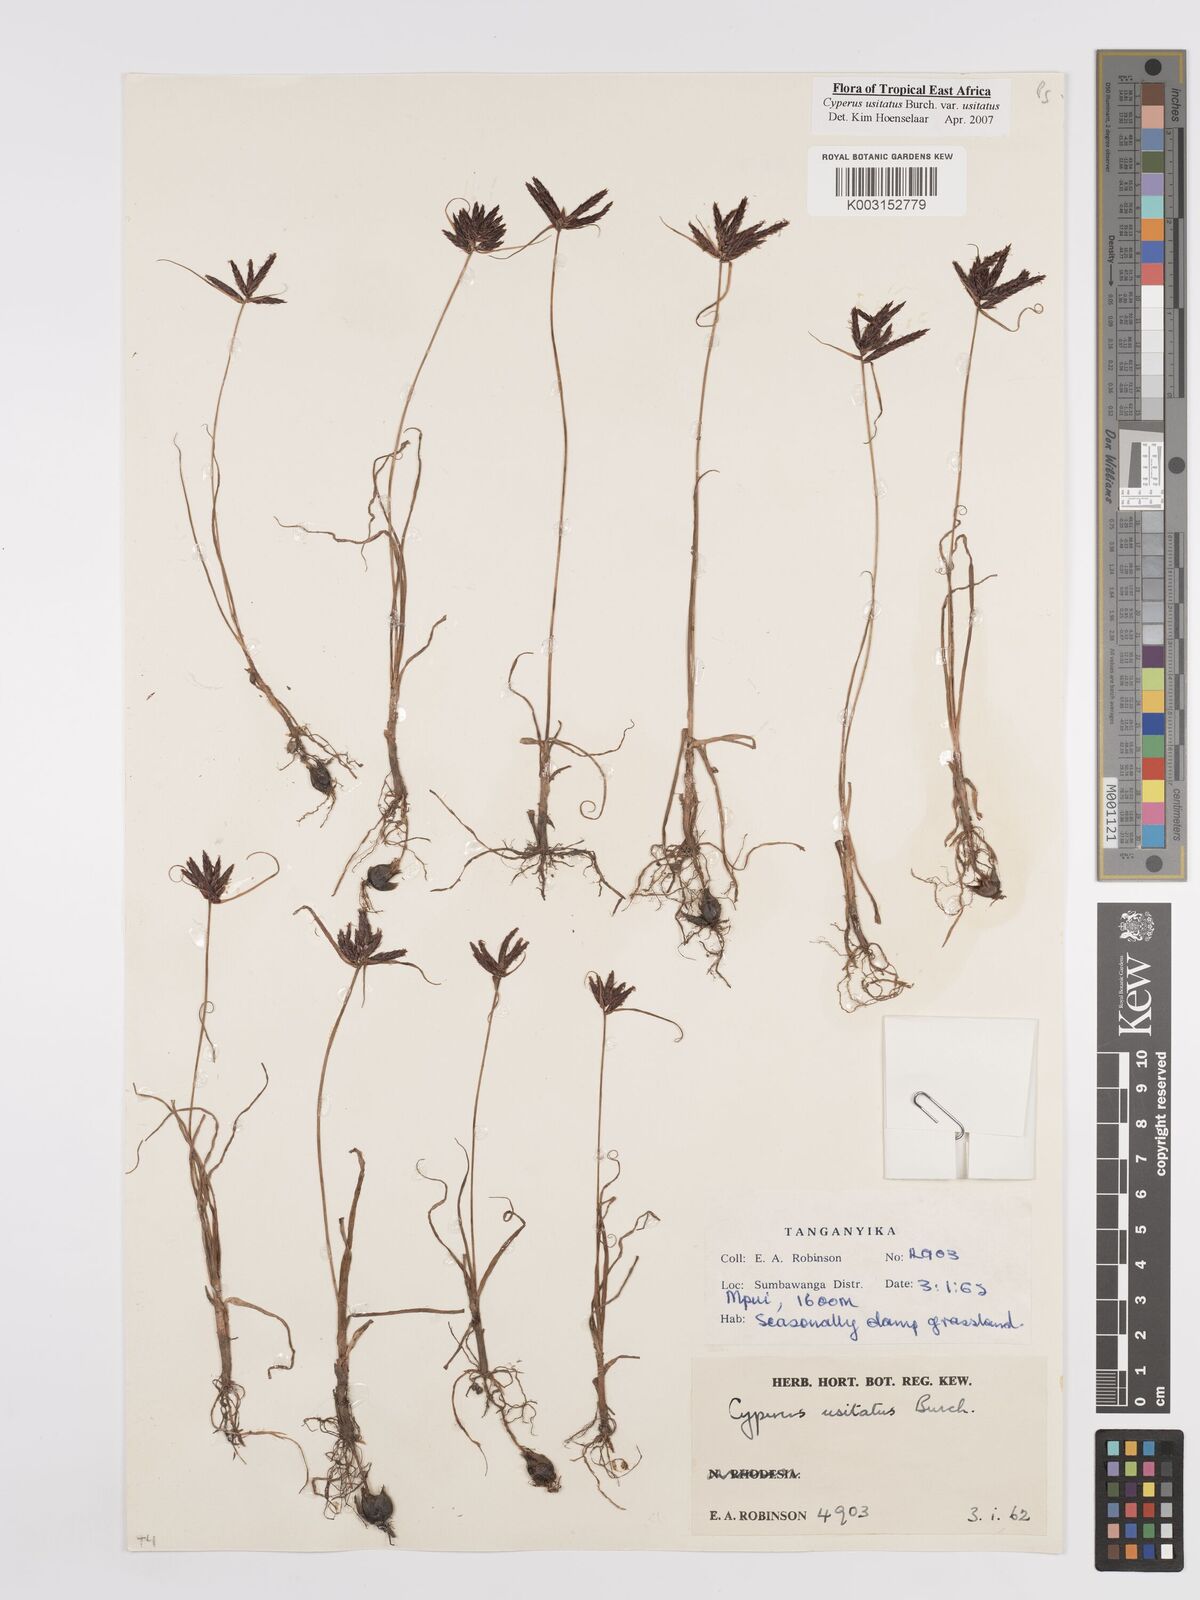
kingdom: Plantae
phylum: Tracheophyta
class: Liliopsida
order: Poales
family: Cyperaceae
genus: Cyperus
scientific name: Cyperus usitatus
